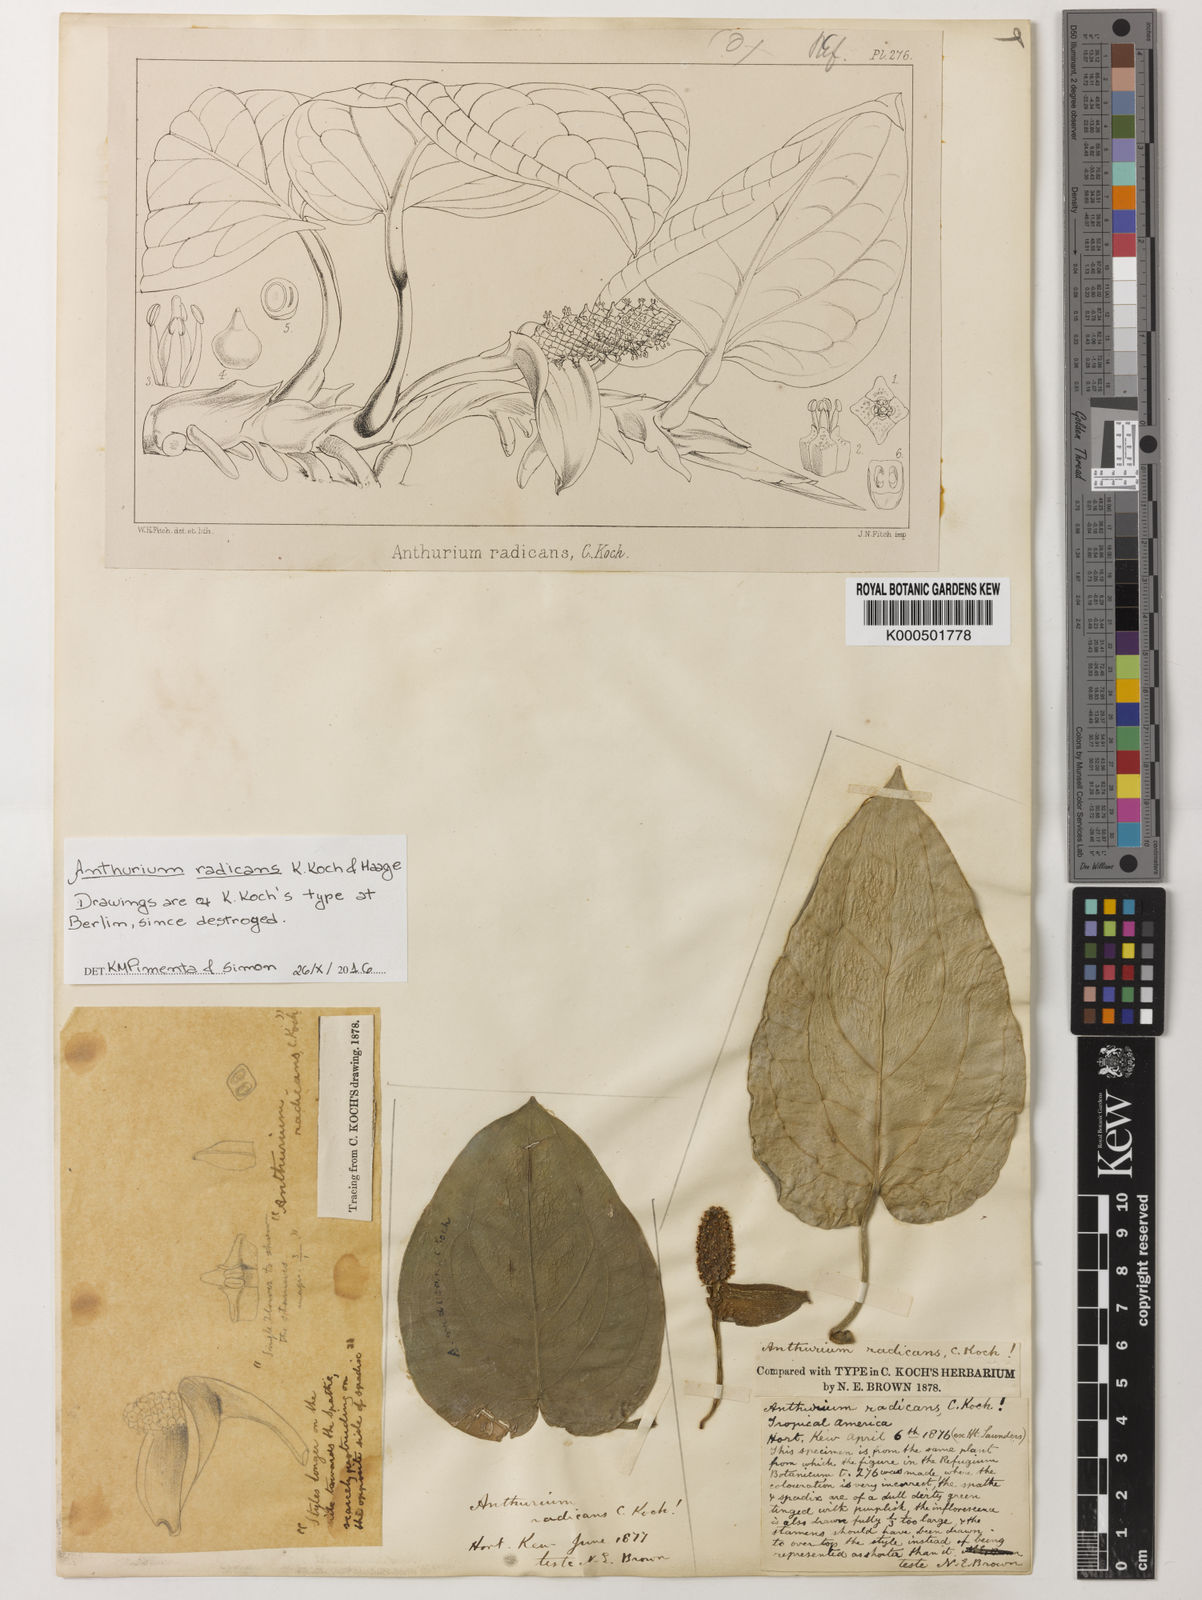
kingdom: Plantae
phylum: Tracheophyta
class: Liliopsida
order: Alismatales
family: Araceae
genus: Anthurium
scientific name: Anthurium radicans
